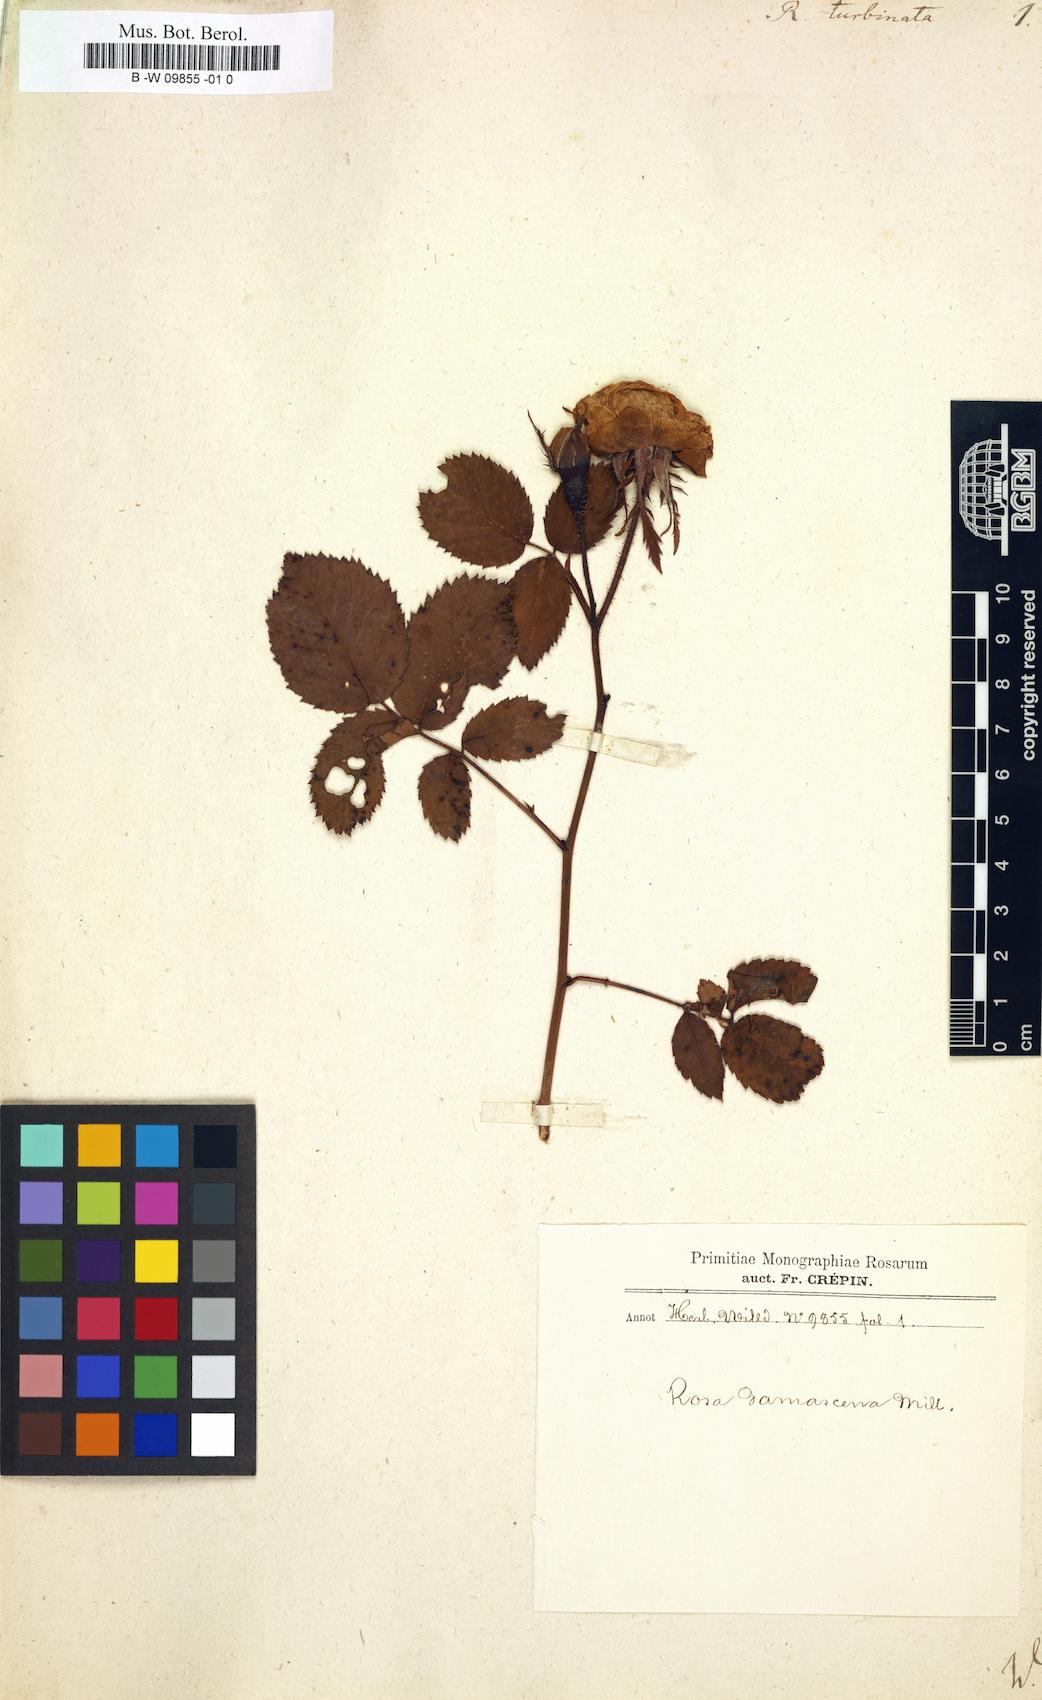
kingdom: Plantae
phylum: Tracheophyta
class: Magnoliopsida
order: Rosales
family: Rosaceae
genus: Rosa
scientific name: Rosa
